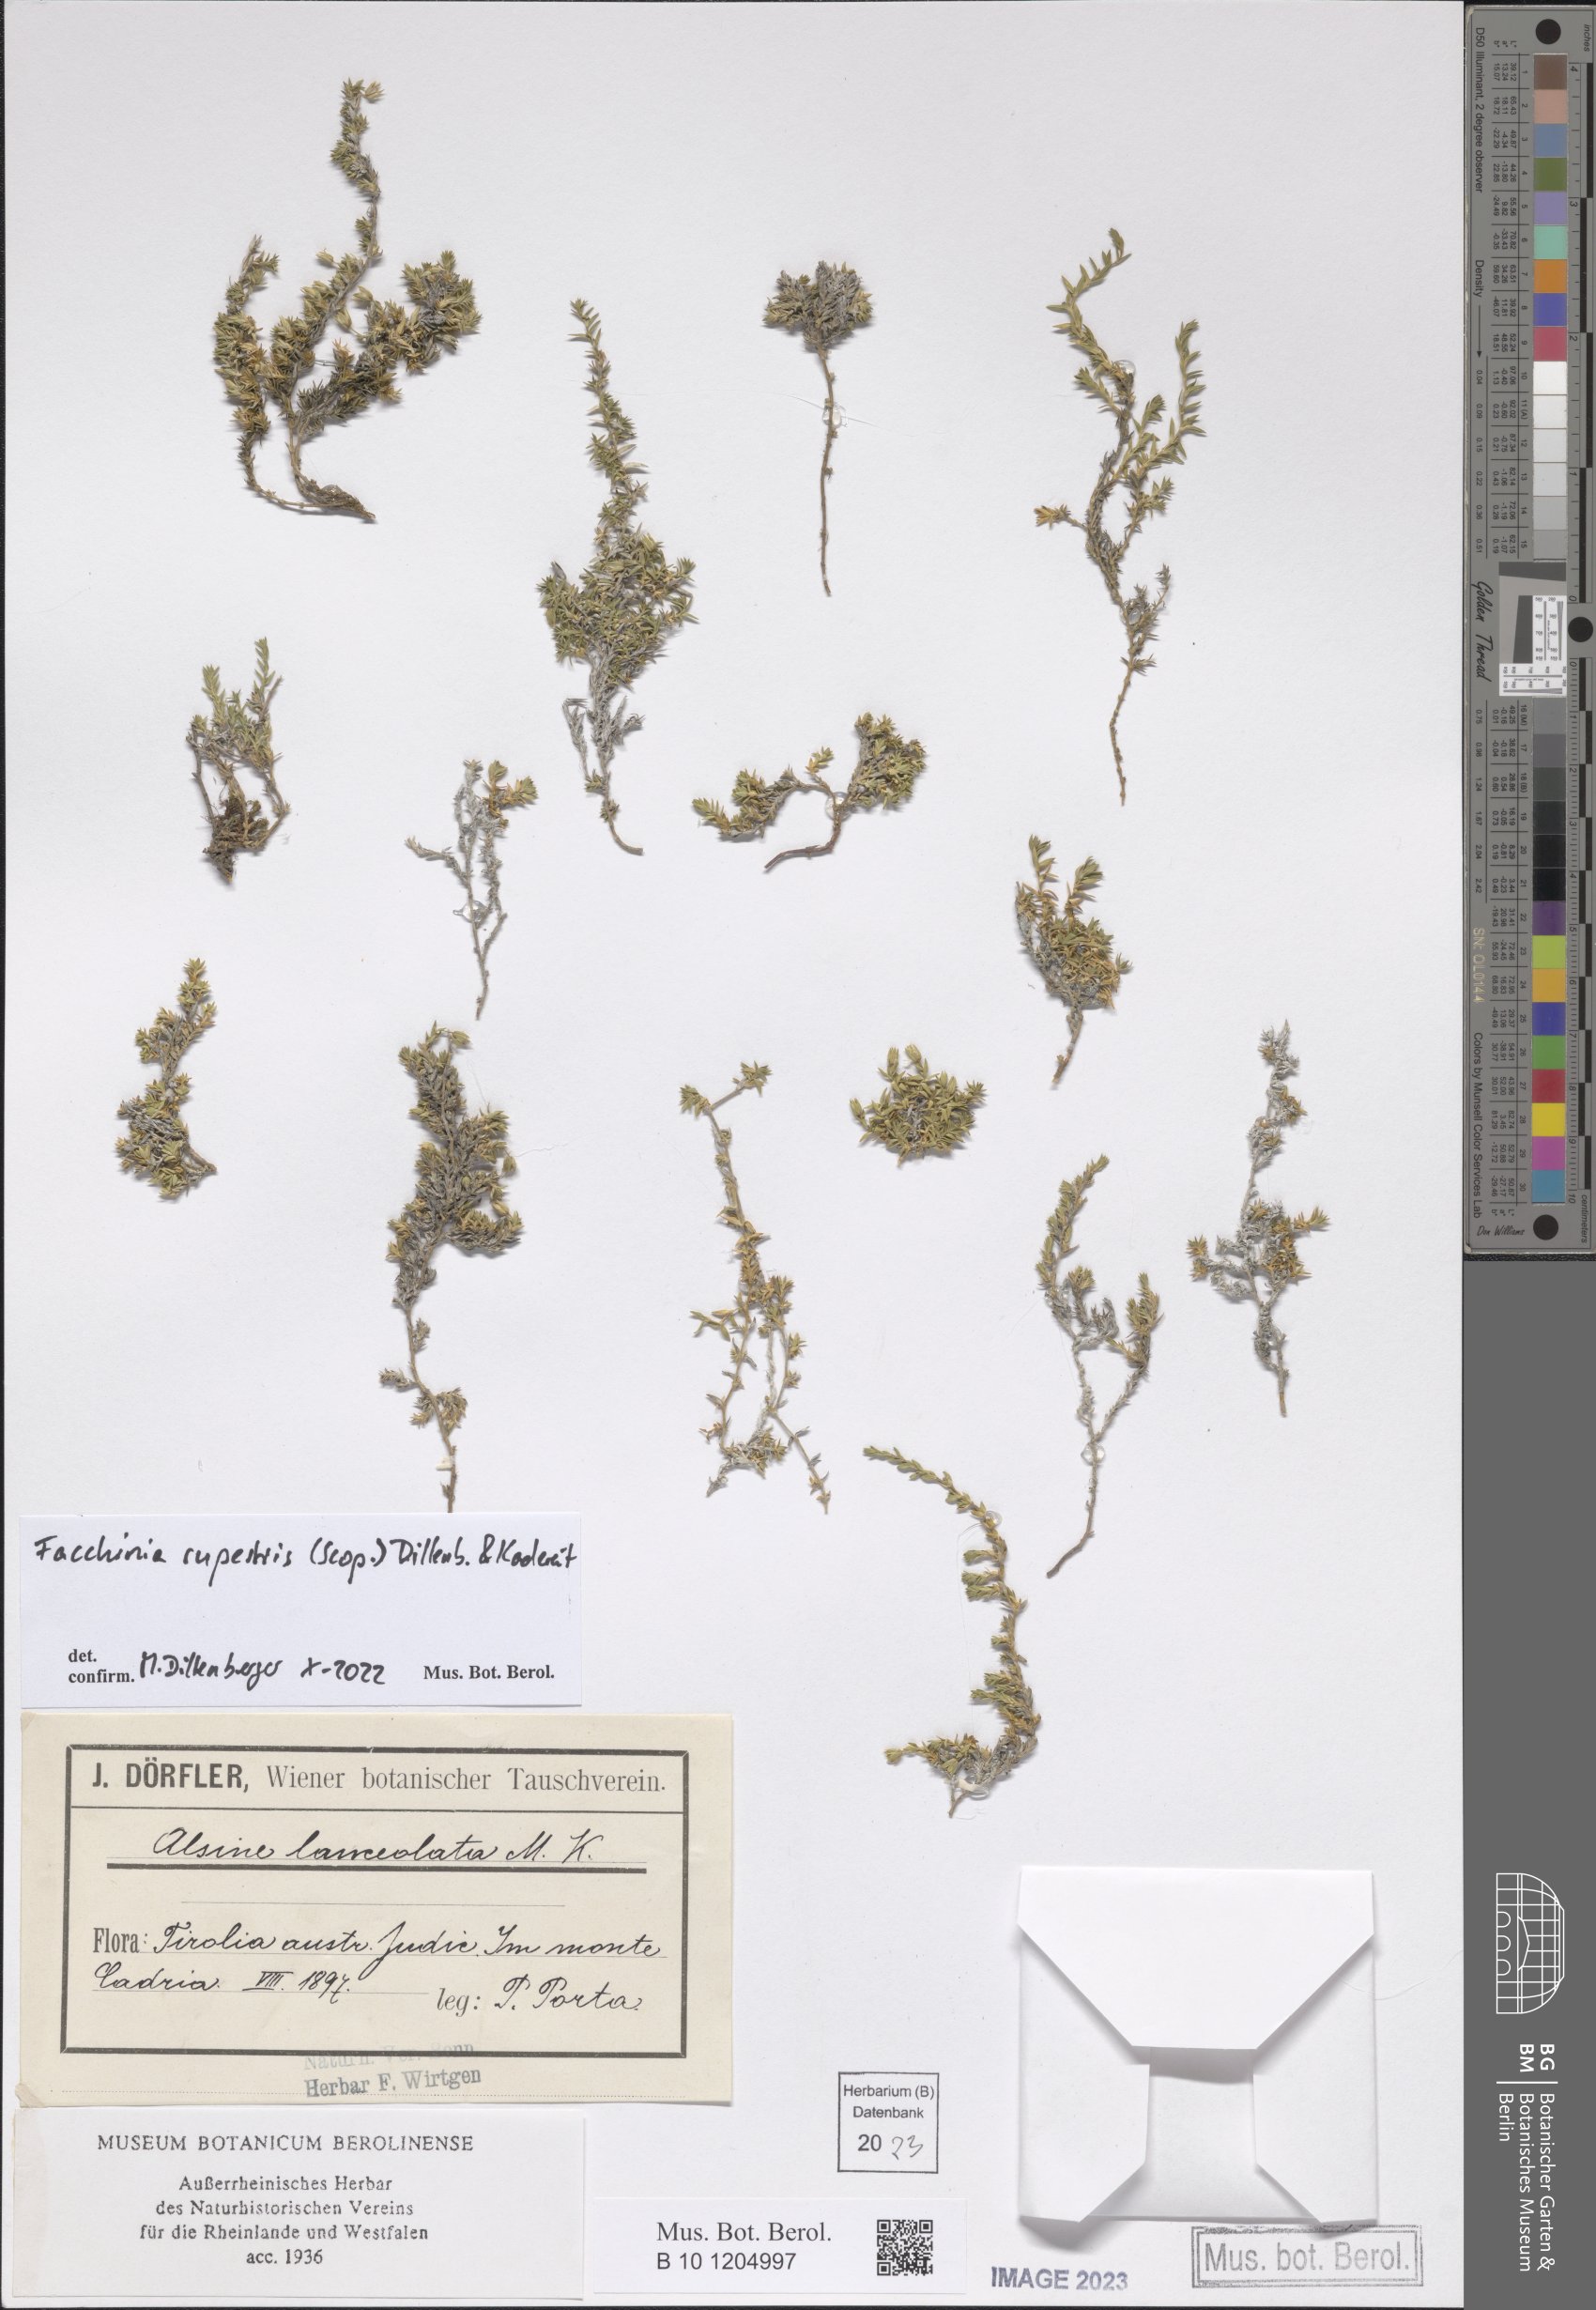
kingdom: Plantae
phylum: Tracheophyta
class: Magnoliopsida
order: Caryophyllales
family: Caryophyllaceae
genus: Facchinia
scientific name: Facchinia rupestris
